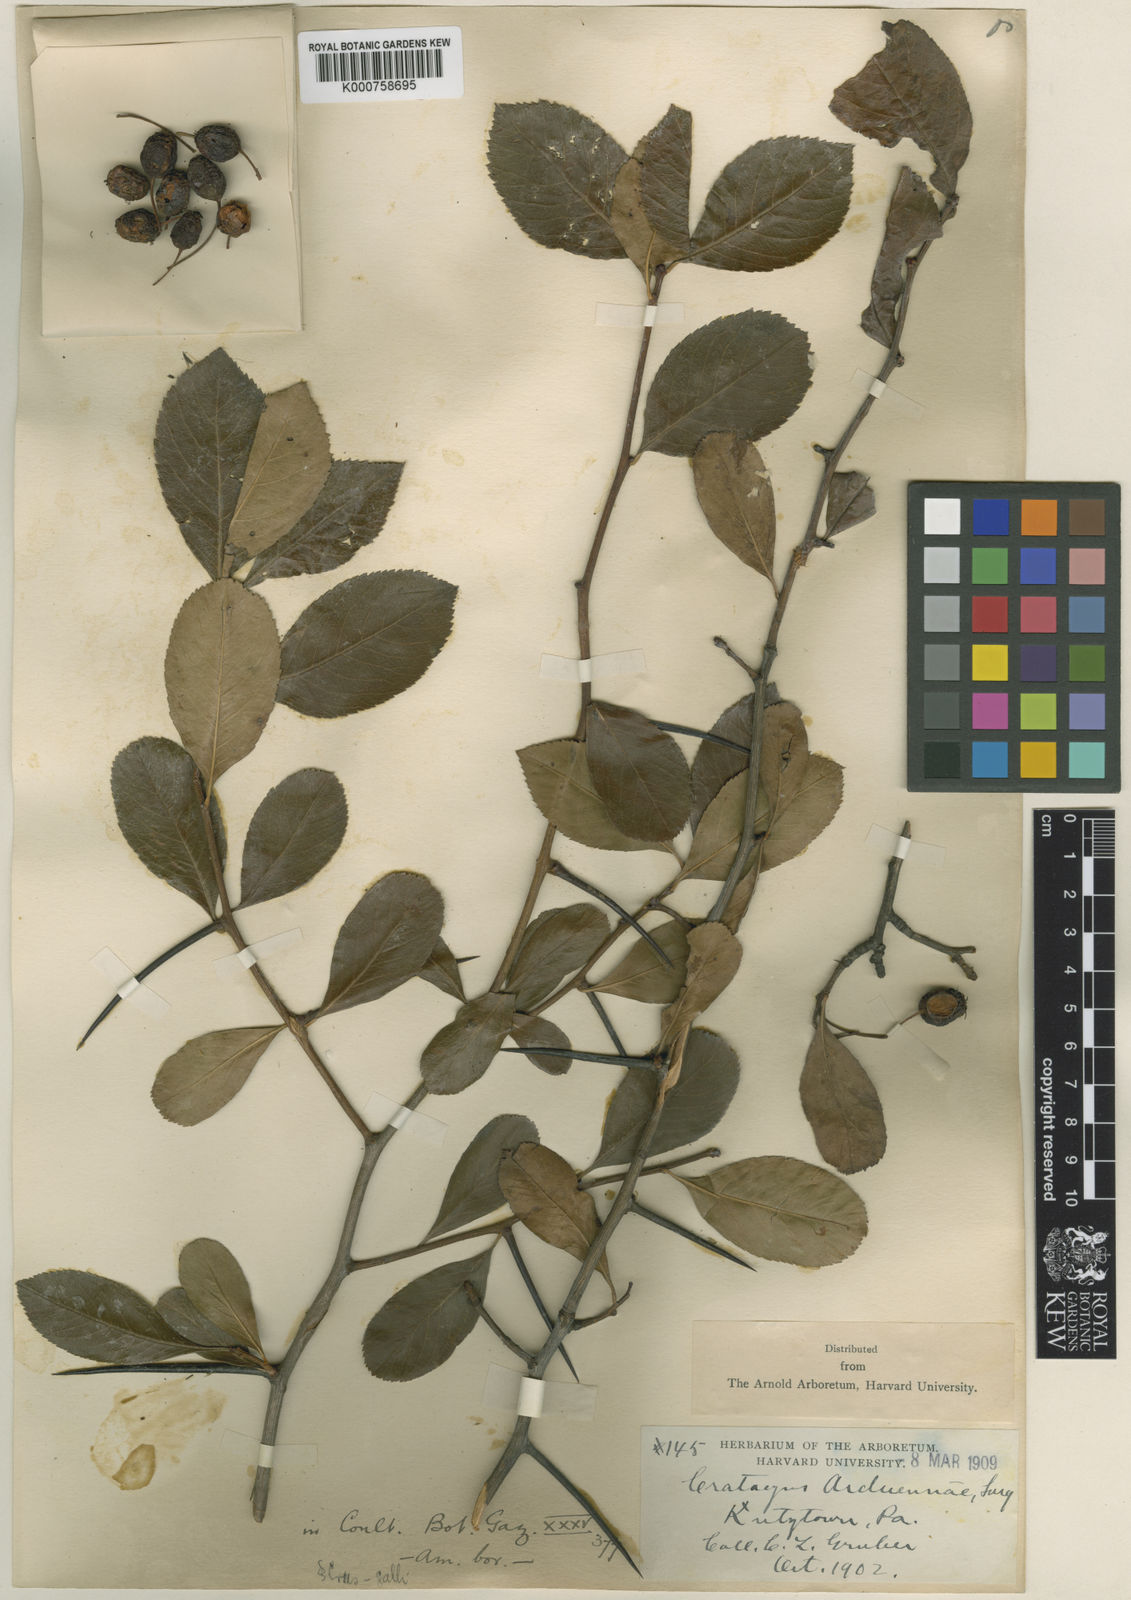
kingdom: Plantae
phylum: Tracheophyta
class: Magnoliopsida
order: Rosales
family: Rosaceae
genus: Crataegus
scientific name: Crataegus chrysocarpa
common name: Fire-berry hawthorn
